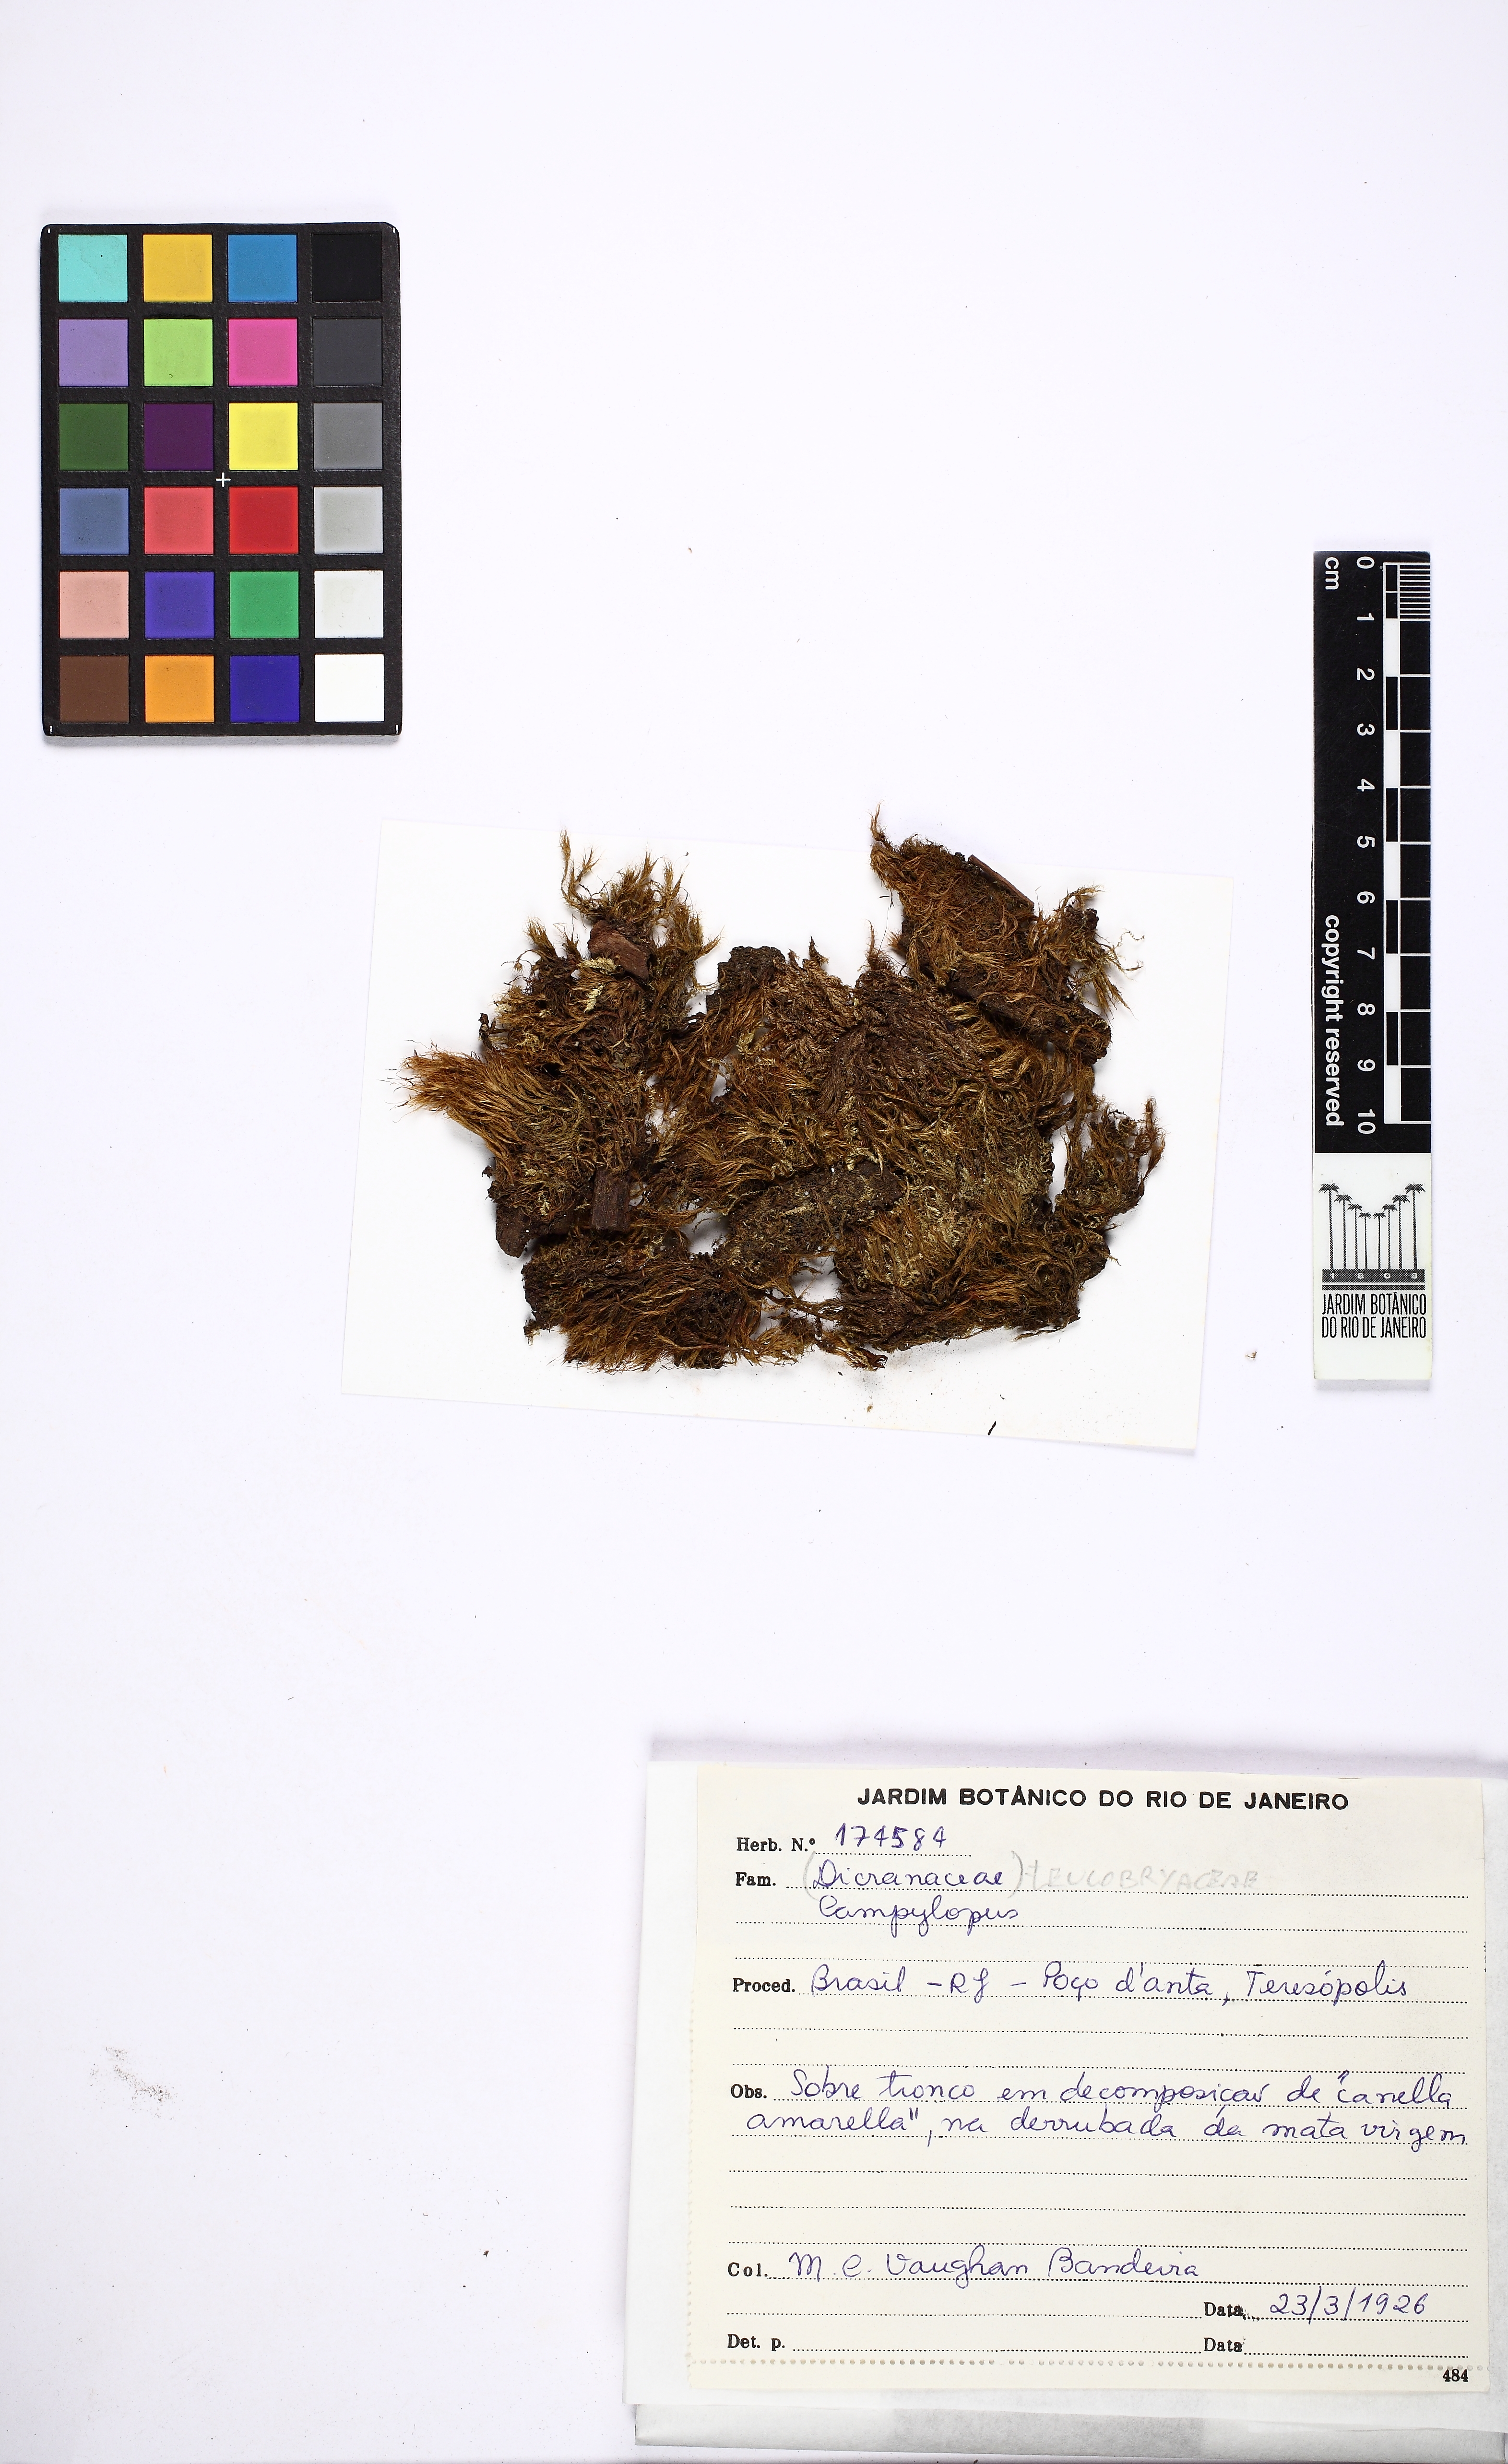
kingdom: Plantae
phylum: Bryophyta
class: Bryopsida
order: Dicranales
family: Leucobryaceae
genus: Campylopus
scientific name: Campylopus
